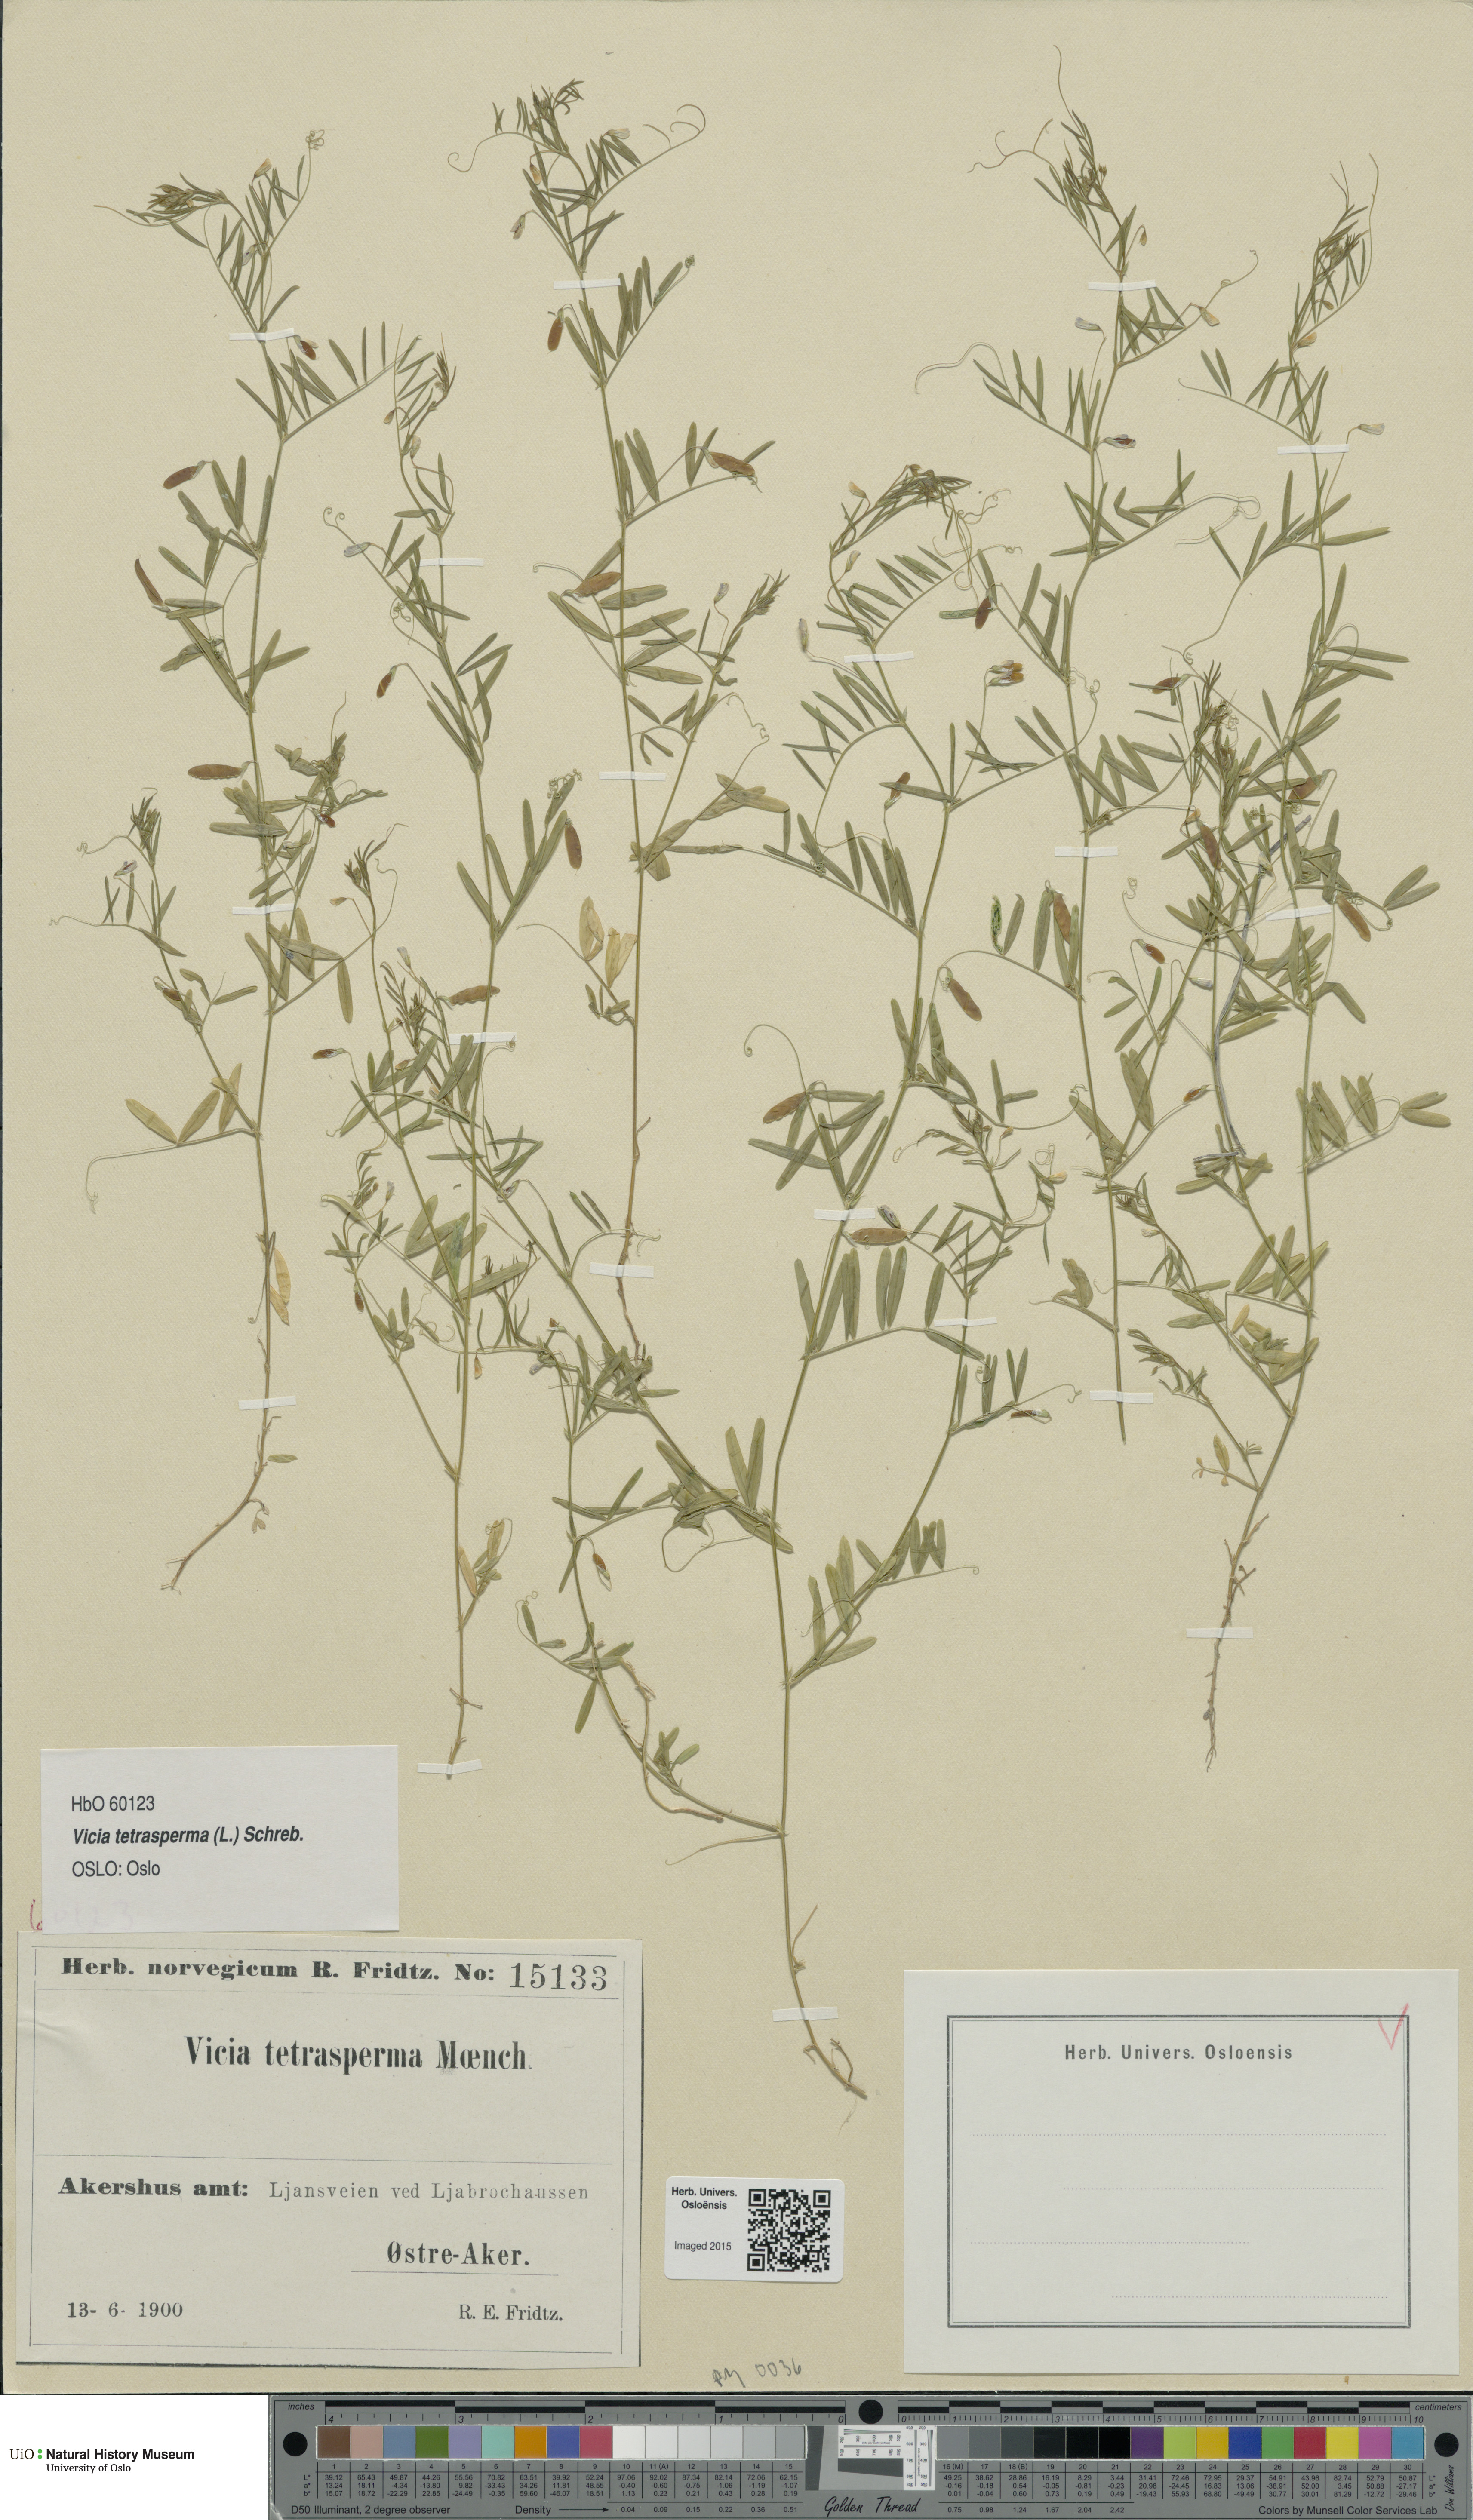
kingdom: Plantae
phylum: Tracheophyta
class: Magnoliopsida
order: Fabales
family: Fabaceae
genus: Vicia
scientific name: Vicia tetrasperma
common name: Smooth tare
